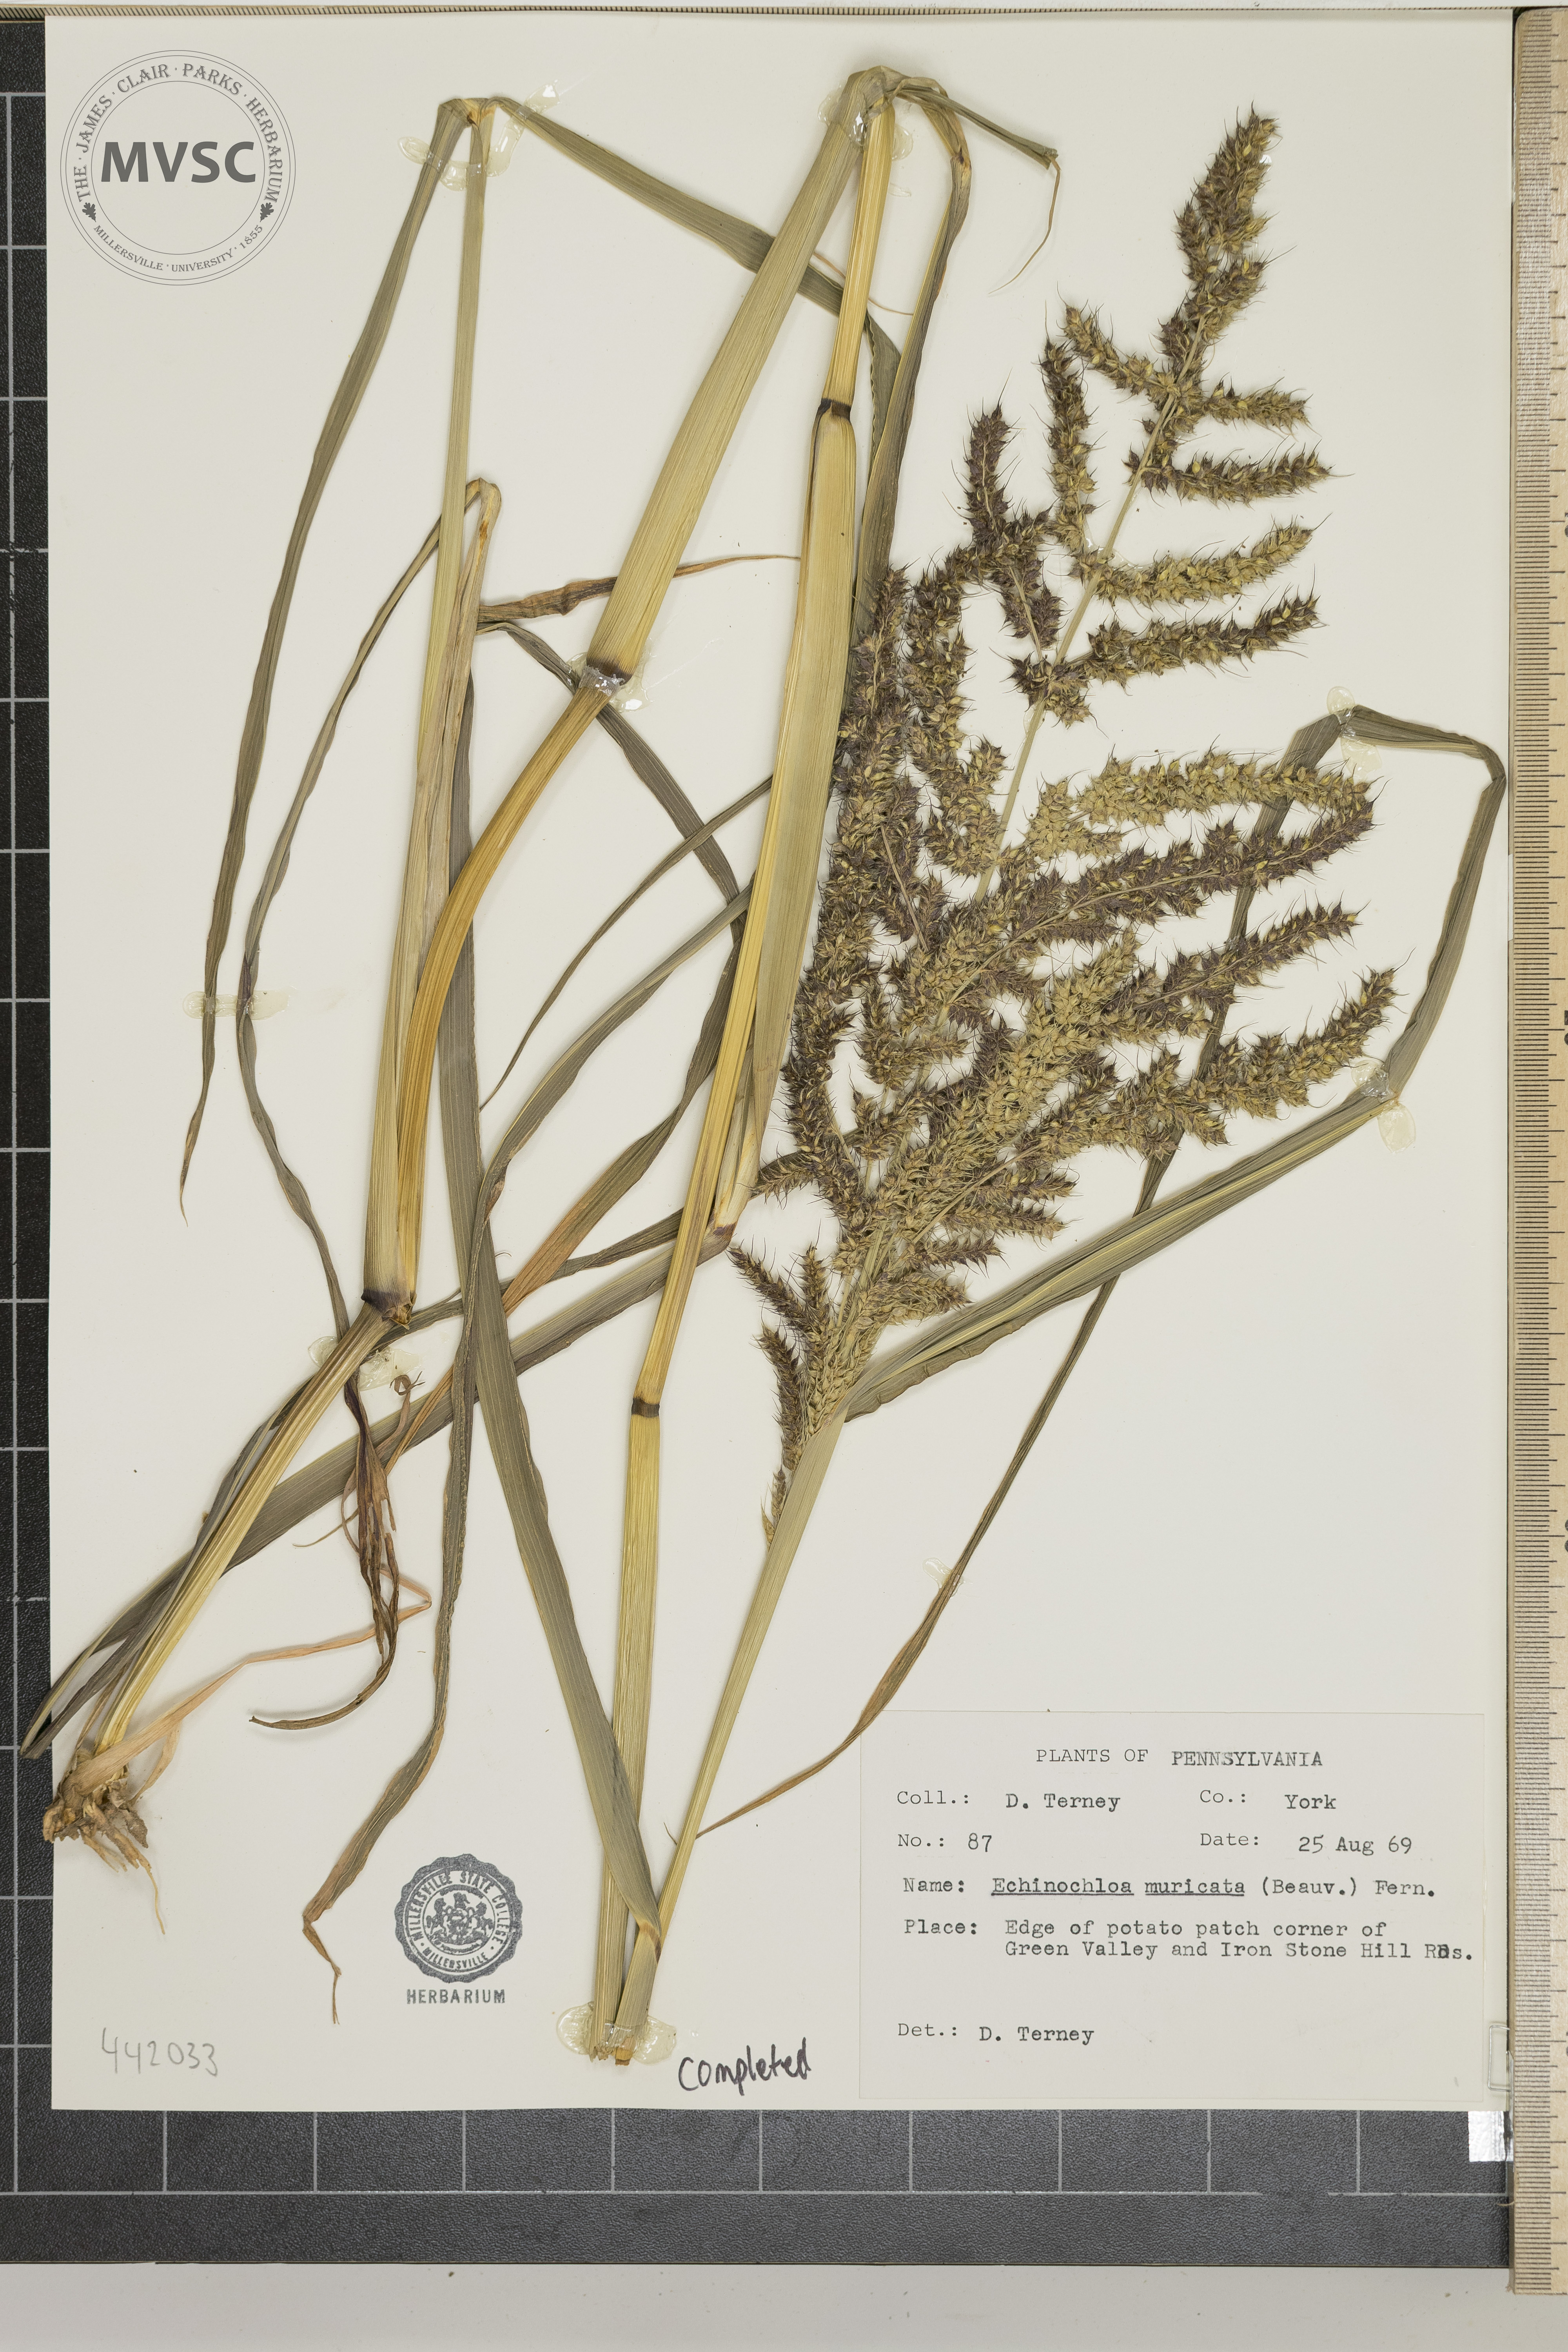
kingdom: Plantae
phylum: Tracheophyta
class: Liliopsida
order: Poales
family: Poaceae
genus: Echinochloa
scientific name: Echinochloa muricata
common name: American barnyard grass
